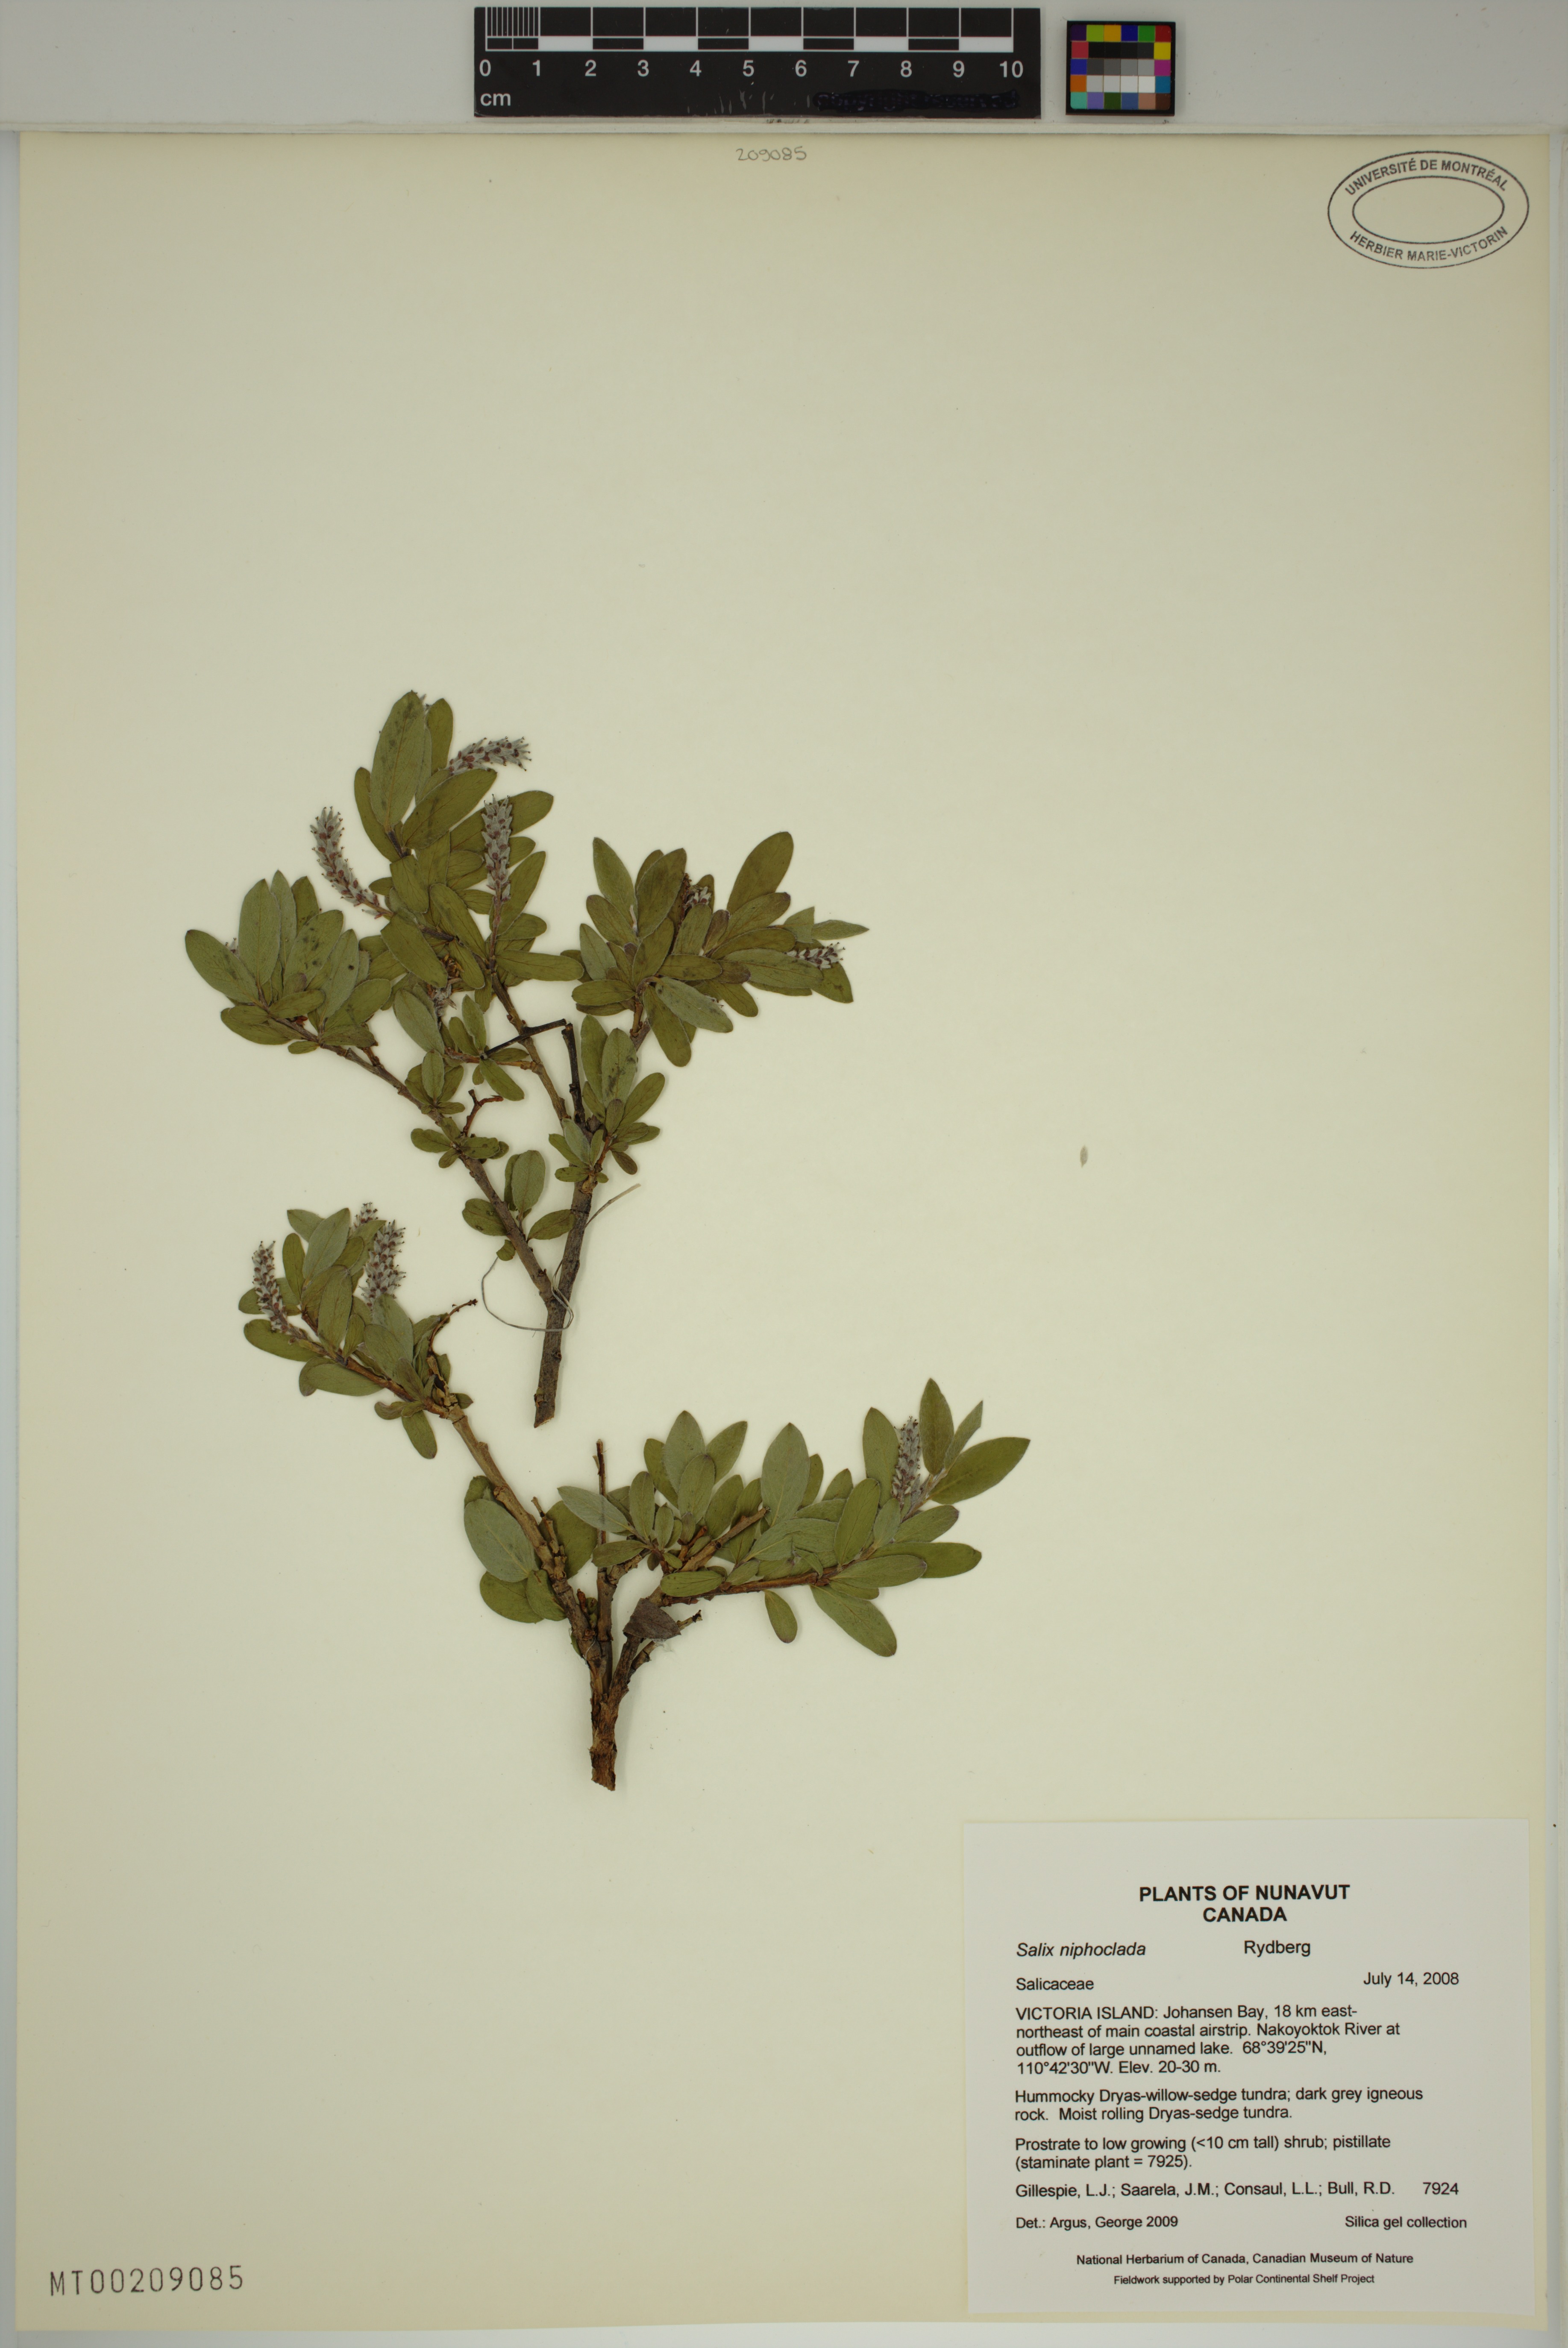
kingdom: Plantae
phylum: Tracheophyta
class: Magnoliopsida
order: Malpighiales
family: Salicaceae
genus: Salix
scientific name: Salix niphoclada
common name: Barren-ground willow
